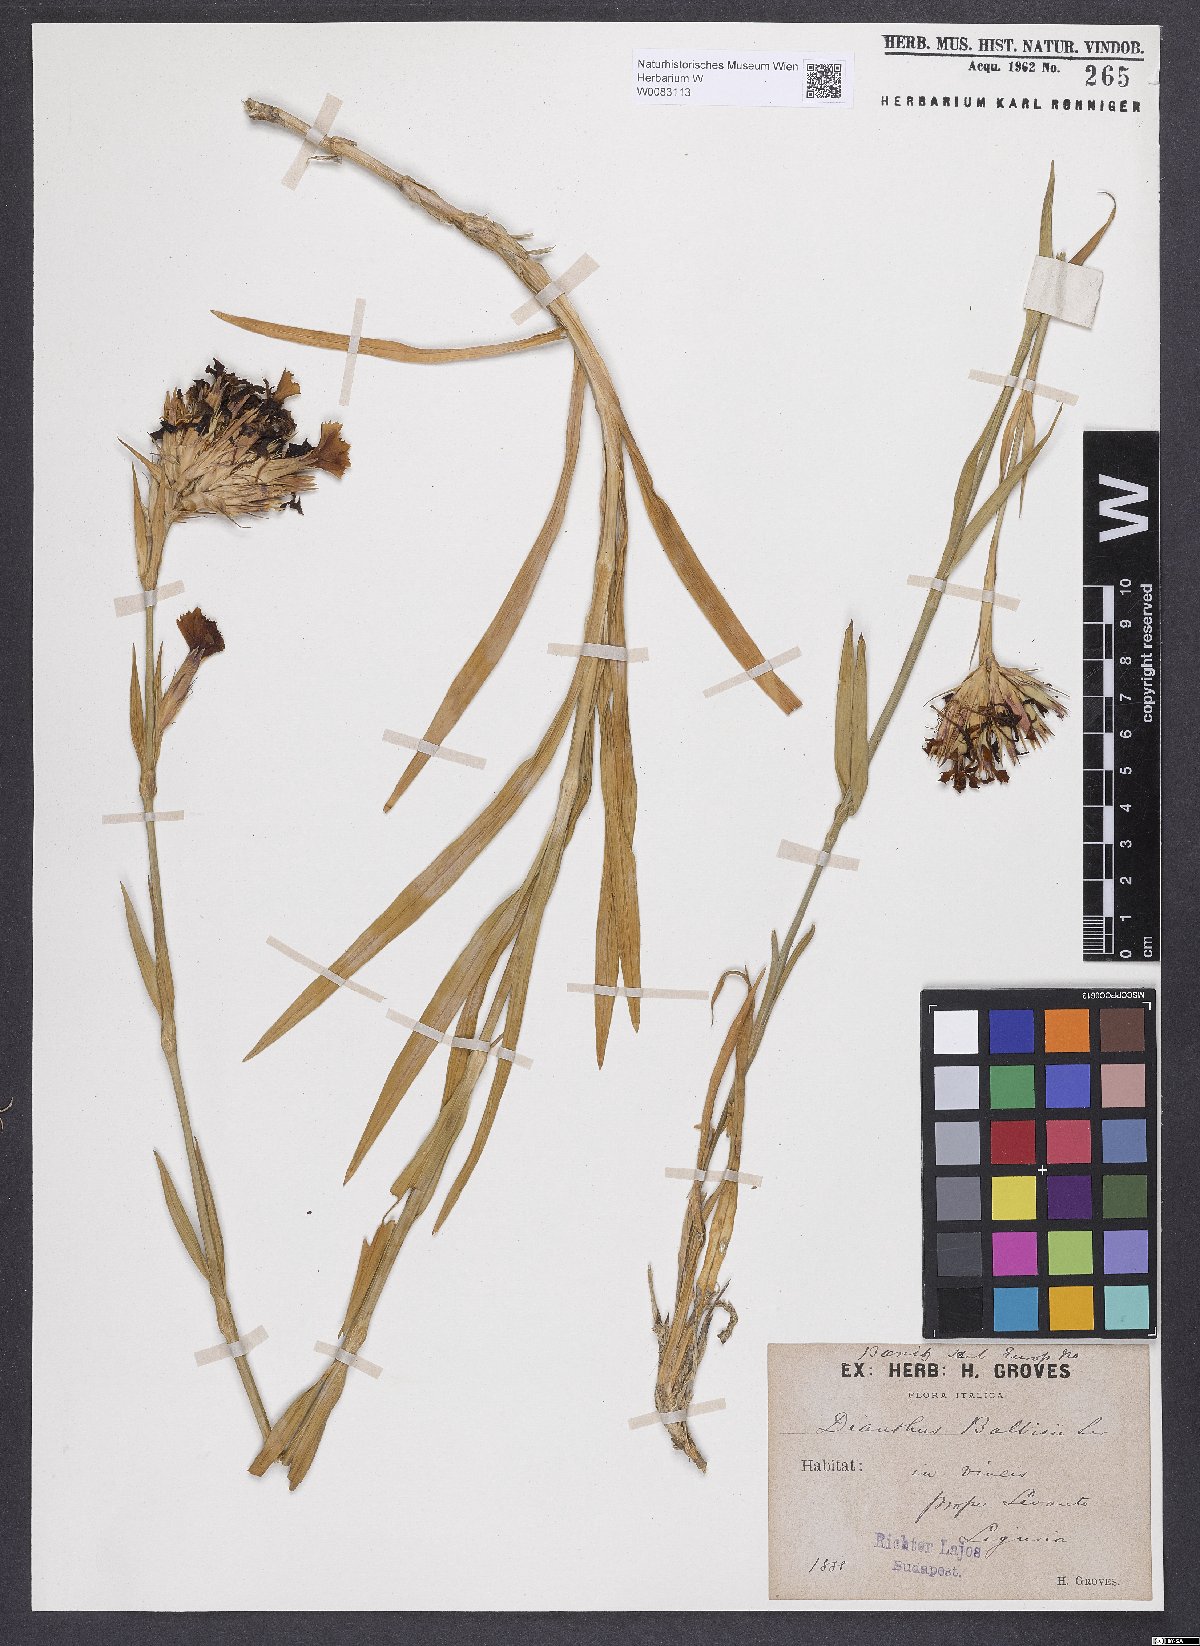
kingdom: Plantae
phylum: Tracheophyta
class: Magnoliopsida
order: Caryophyllales
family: Caryophyllaceae
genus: Dianthus
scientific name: Dianthus crassipes
